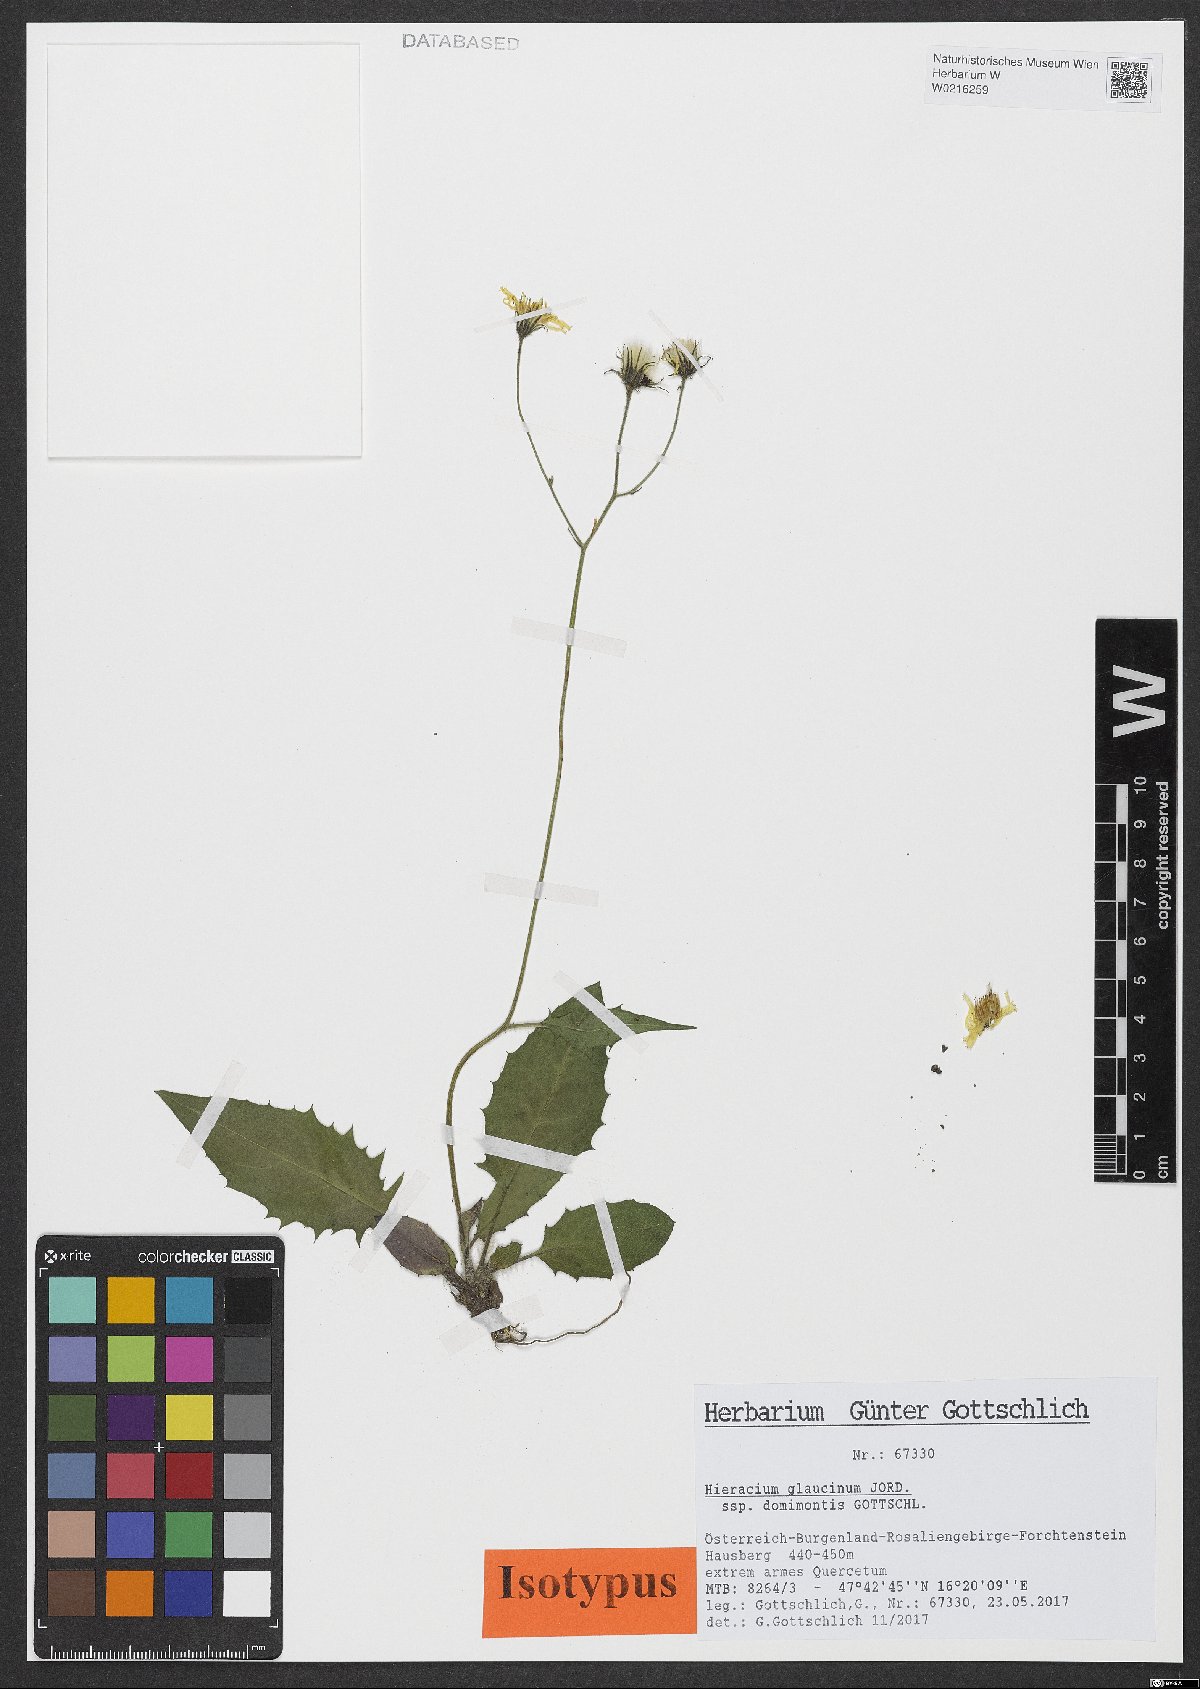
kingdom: Plantae
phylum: Tracheophyta
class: Magnoliopsida
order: Asterales
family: Asteraceae
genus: Hieracium
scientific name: Hieracium glaucinum
